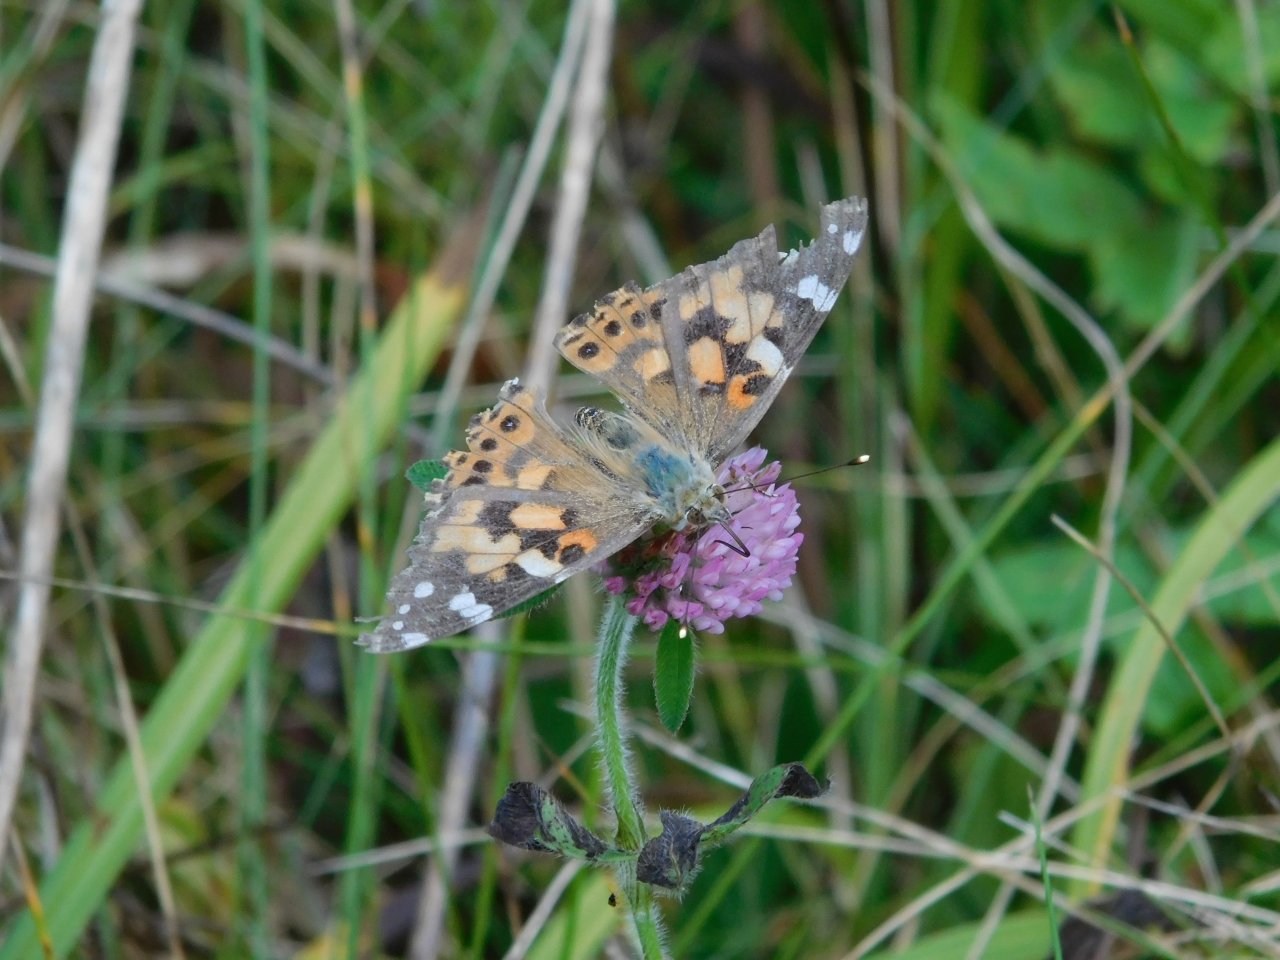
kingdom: Animalia
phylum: Arthropoda
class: Insecta
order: Lepidoptera
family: Nymphalidae
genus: Vanessa
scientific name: Vanessa cardui
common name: Painted Lady
